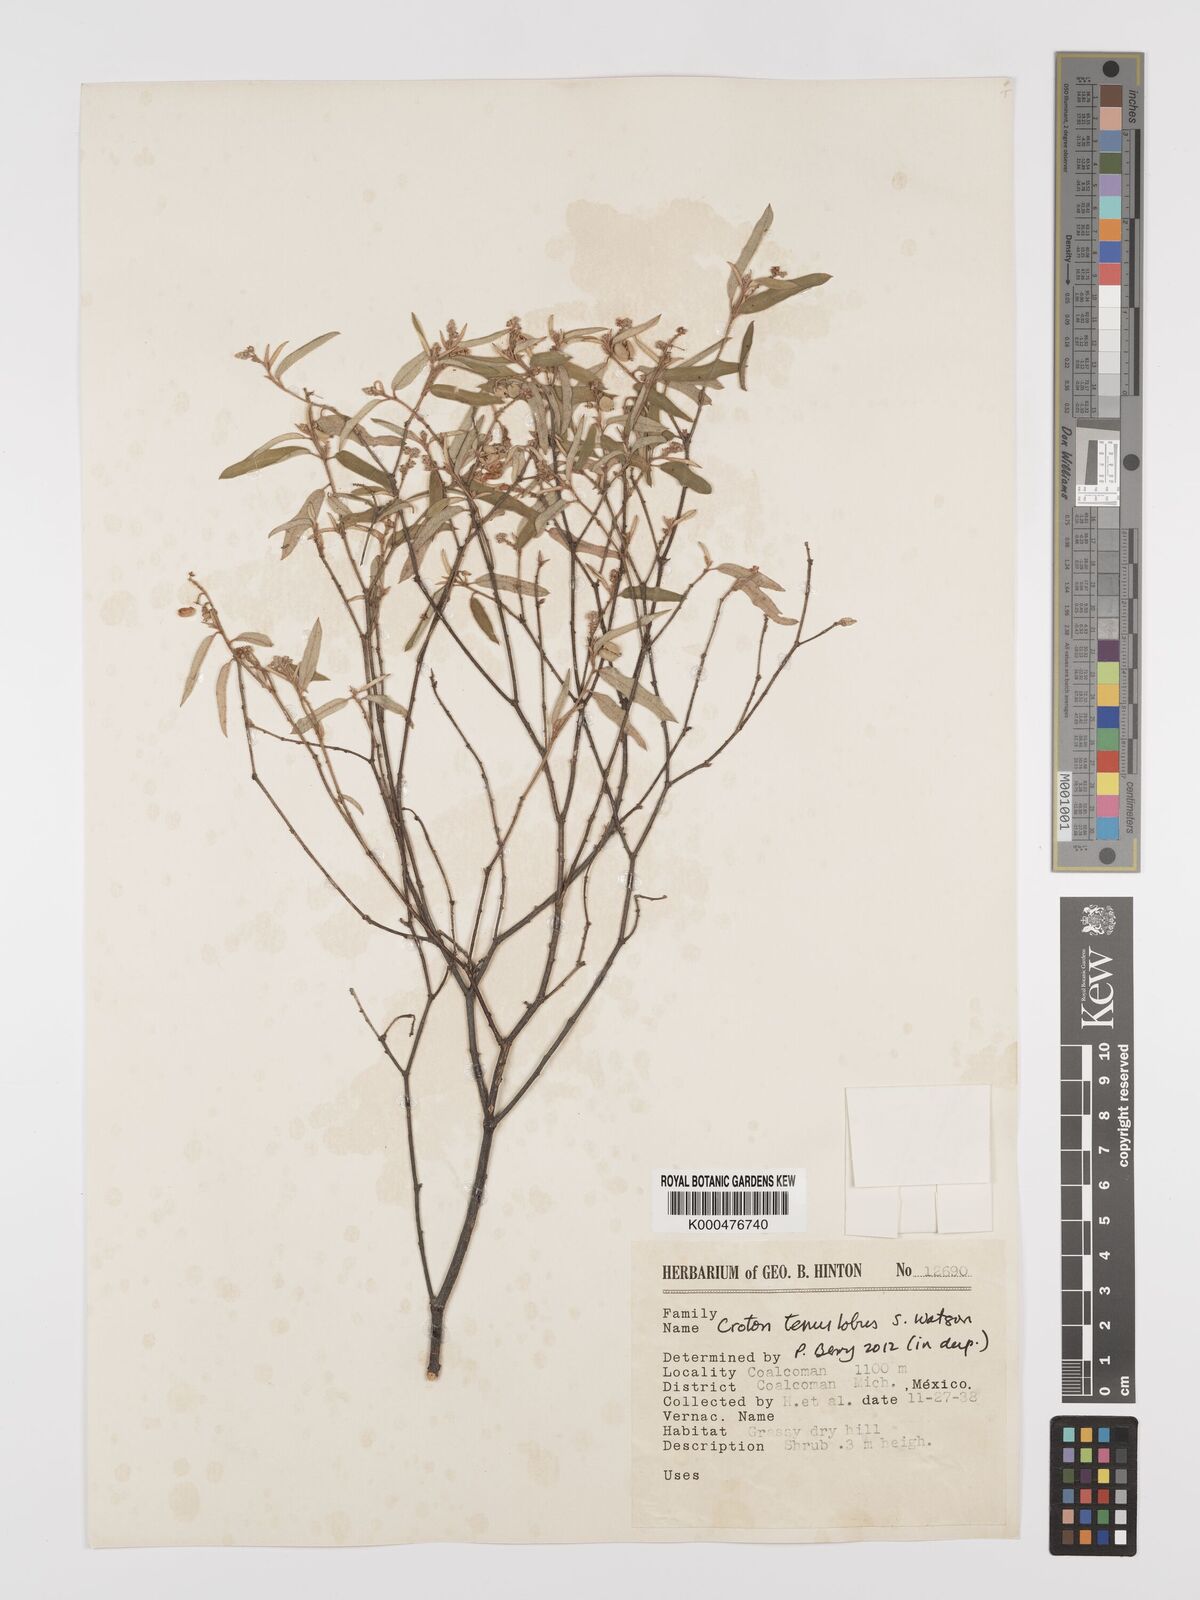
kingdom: Plantae
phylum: Tracheophyta
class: Magnoliopsida
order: Malpighiales
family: Euphorbiaceae
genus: Croton
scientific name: Croton tenuilobus
